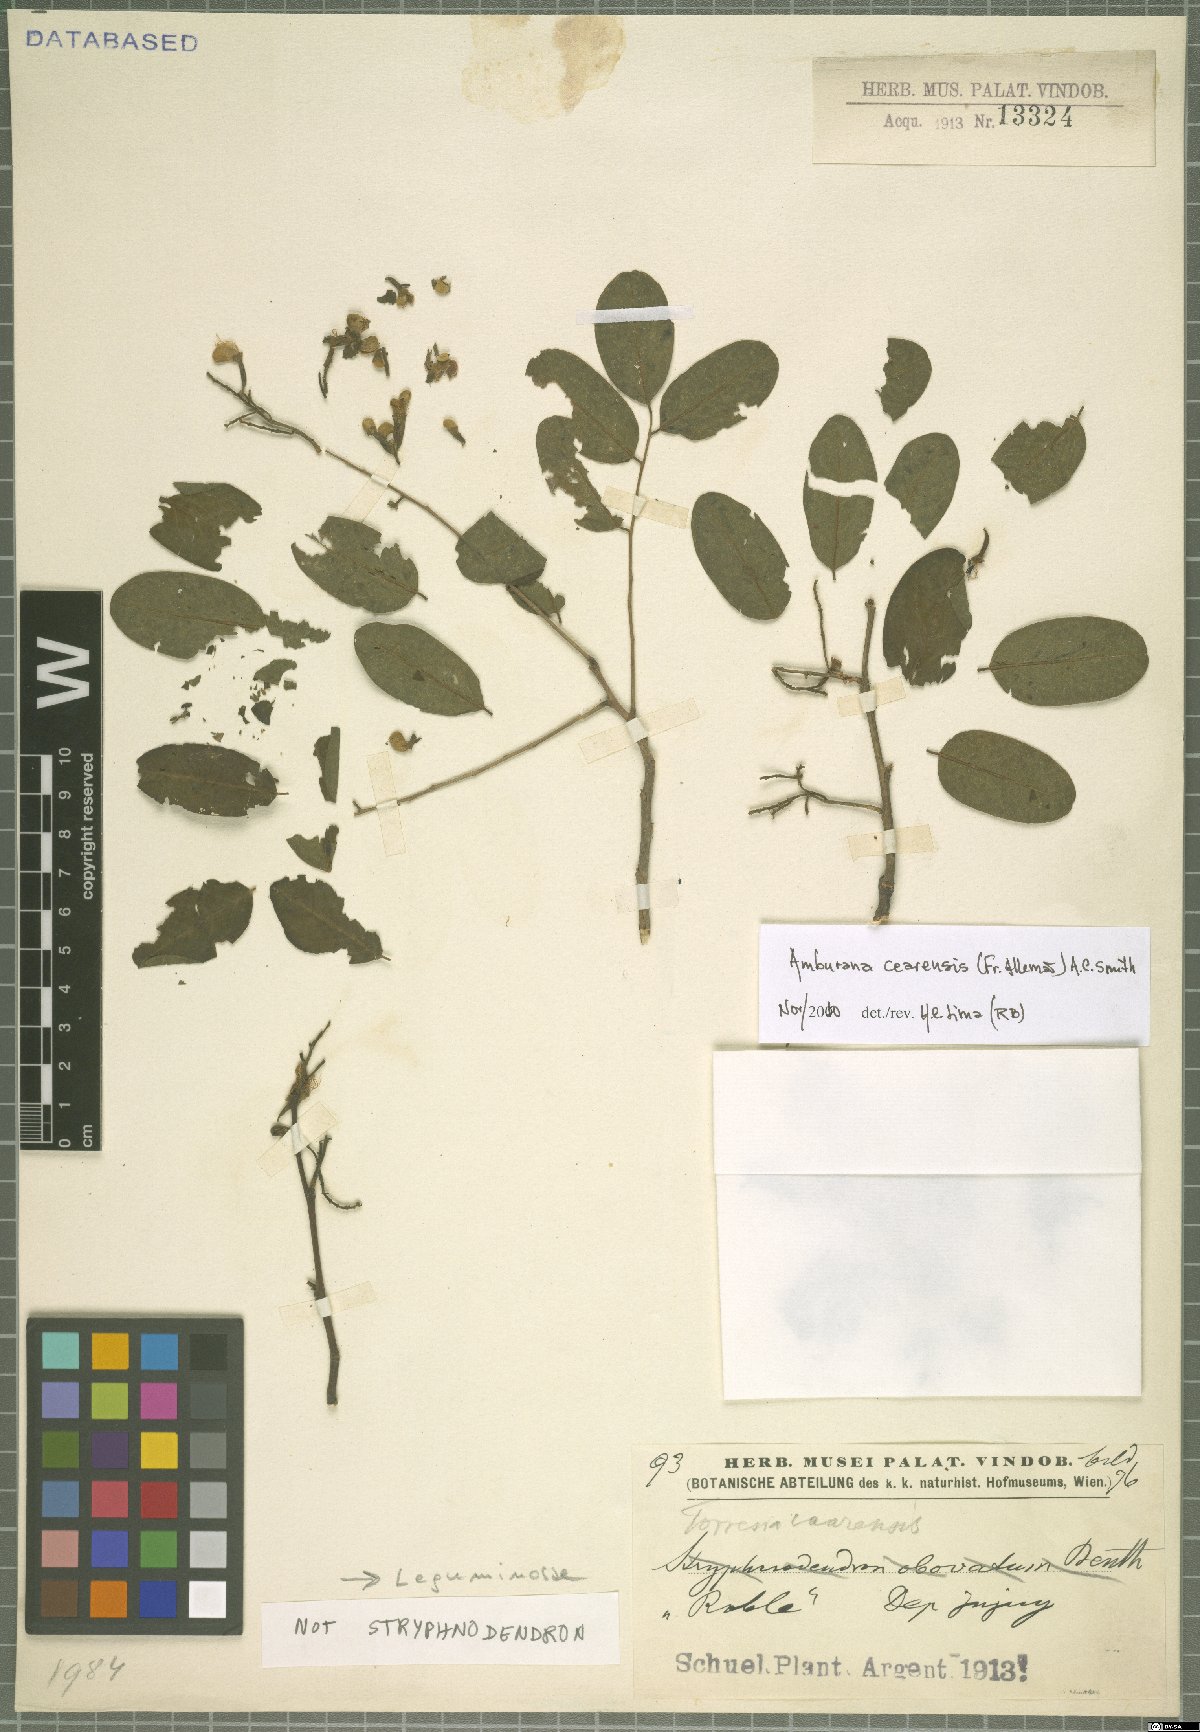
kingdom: Plantae
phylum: Tracheophyta
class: Magnoliopsida
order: Fabales
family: Fabaceae
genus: Amburana
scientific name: Amburana cearensis
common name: Cerejeira
